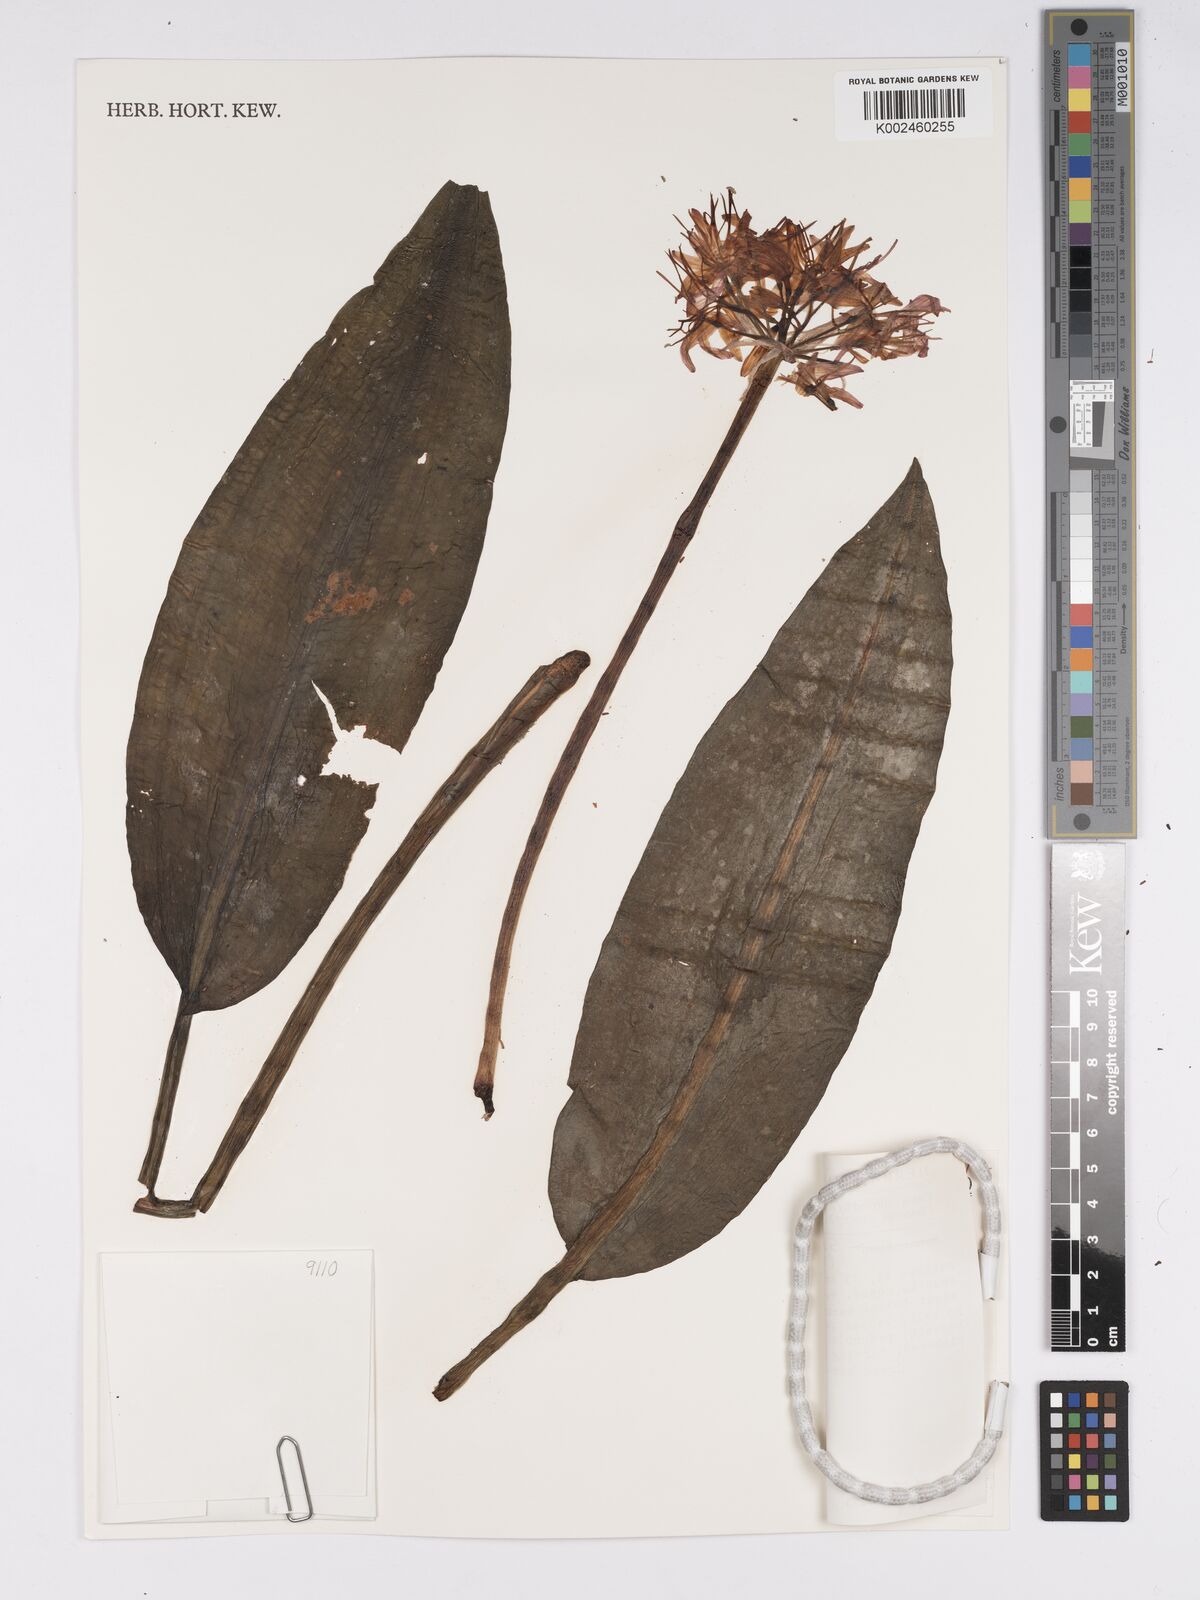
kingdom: Plantae
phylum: Tracheophyta
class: Liliopsida
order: Asparagales
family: Amaryllidaceae
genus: Scadoxus
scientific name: Scadoxus cinnabarinus
